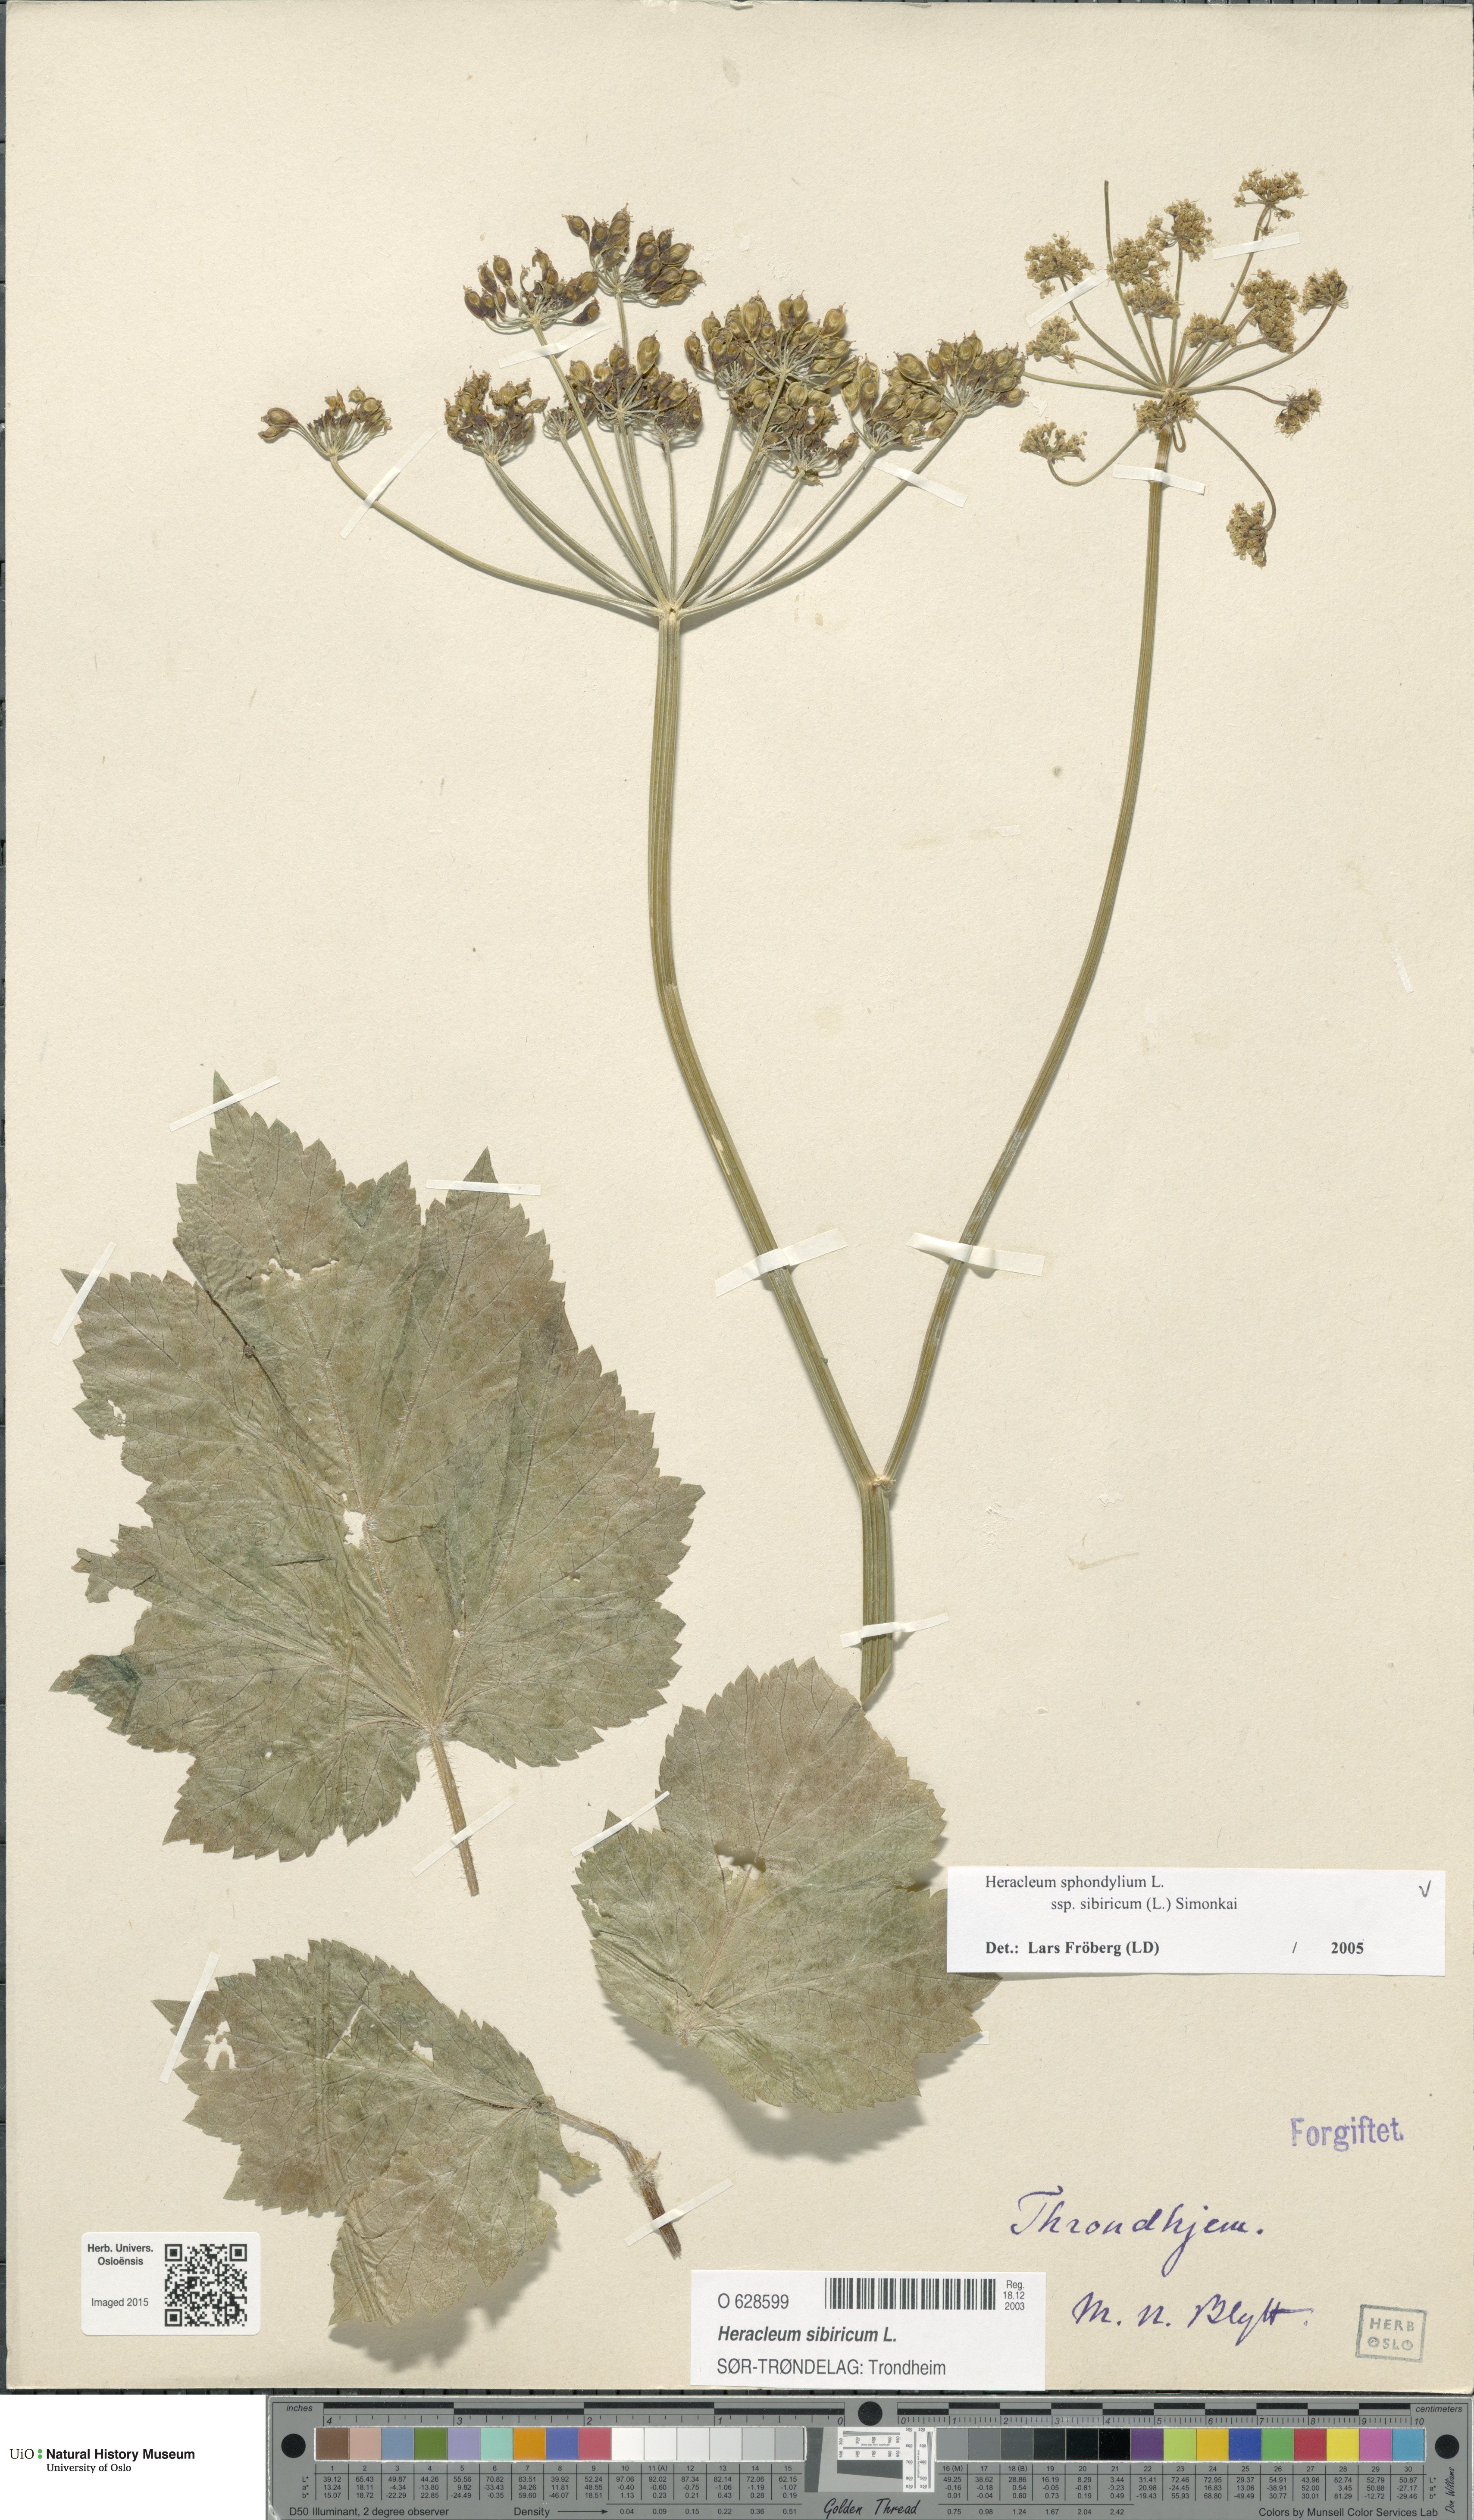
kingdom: Plantae
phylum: Tracheophyta
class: Magnoliopsida
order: Apiales
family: Apiaceae
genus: Heracleum
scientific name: Heracleum sphondylium
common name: Hogweed
